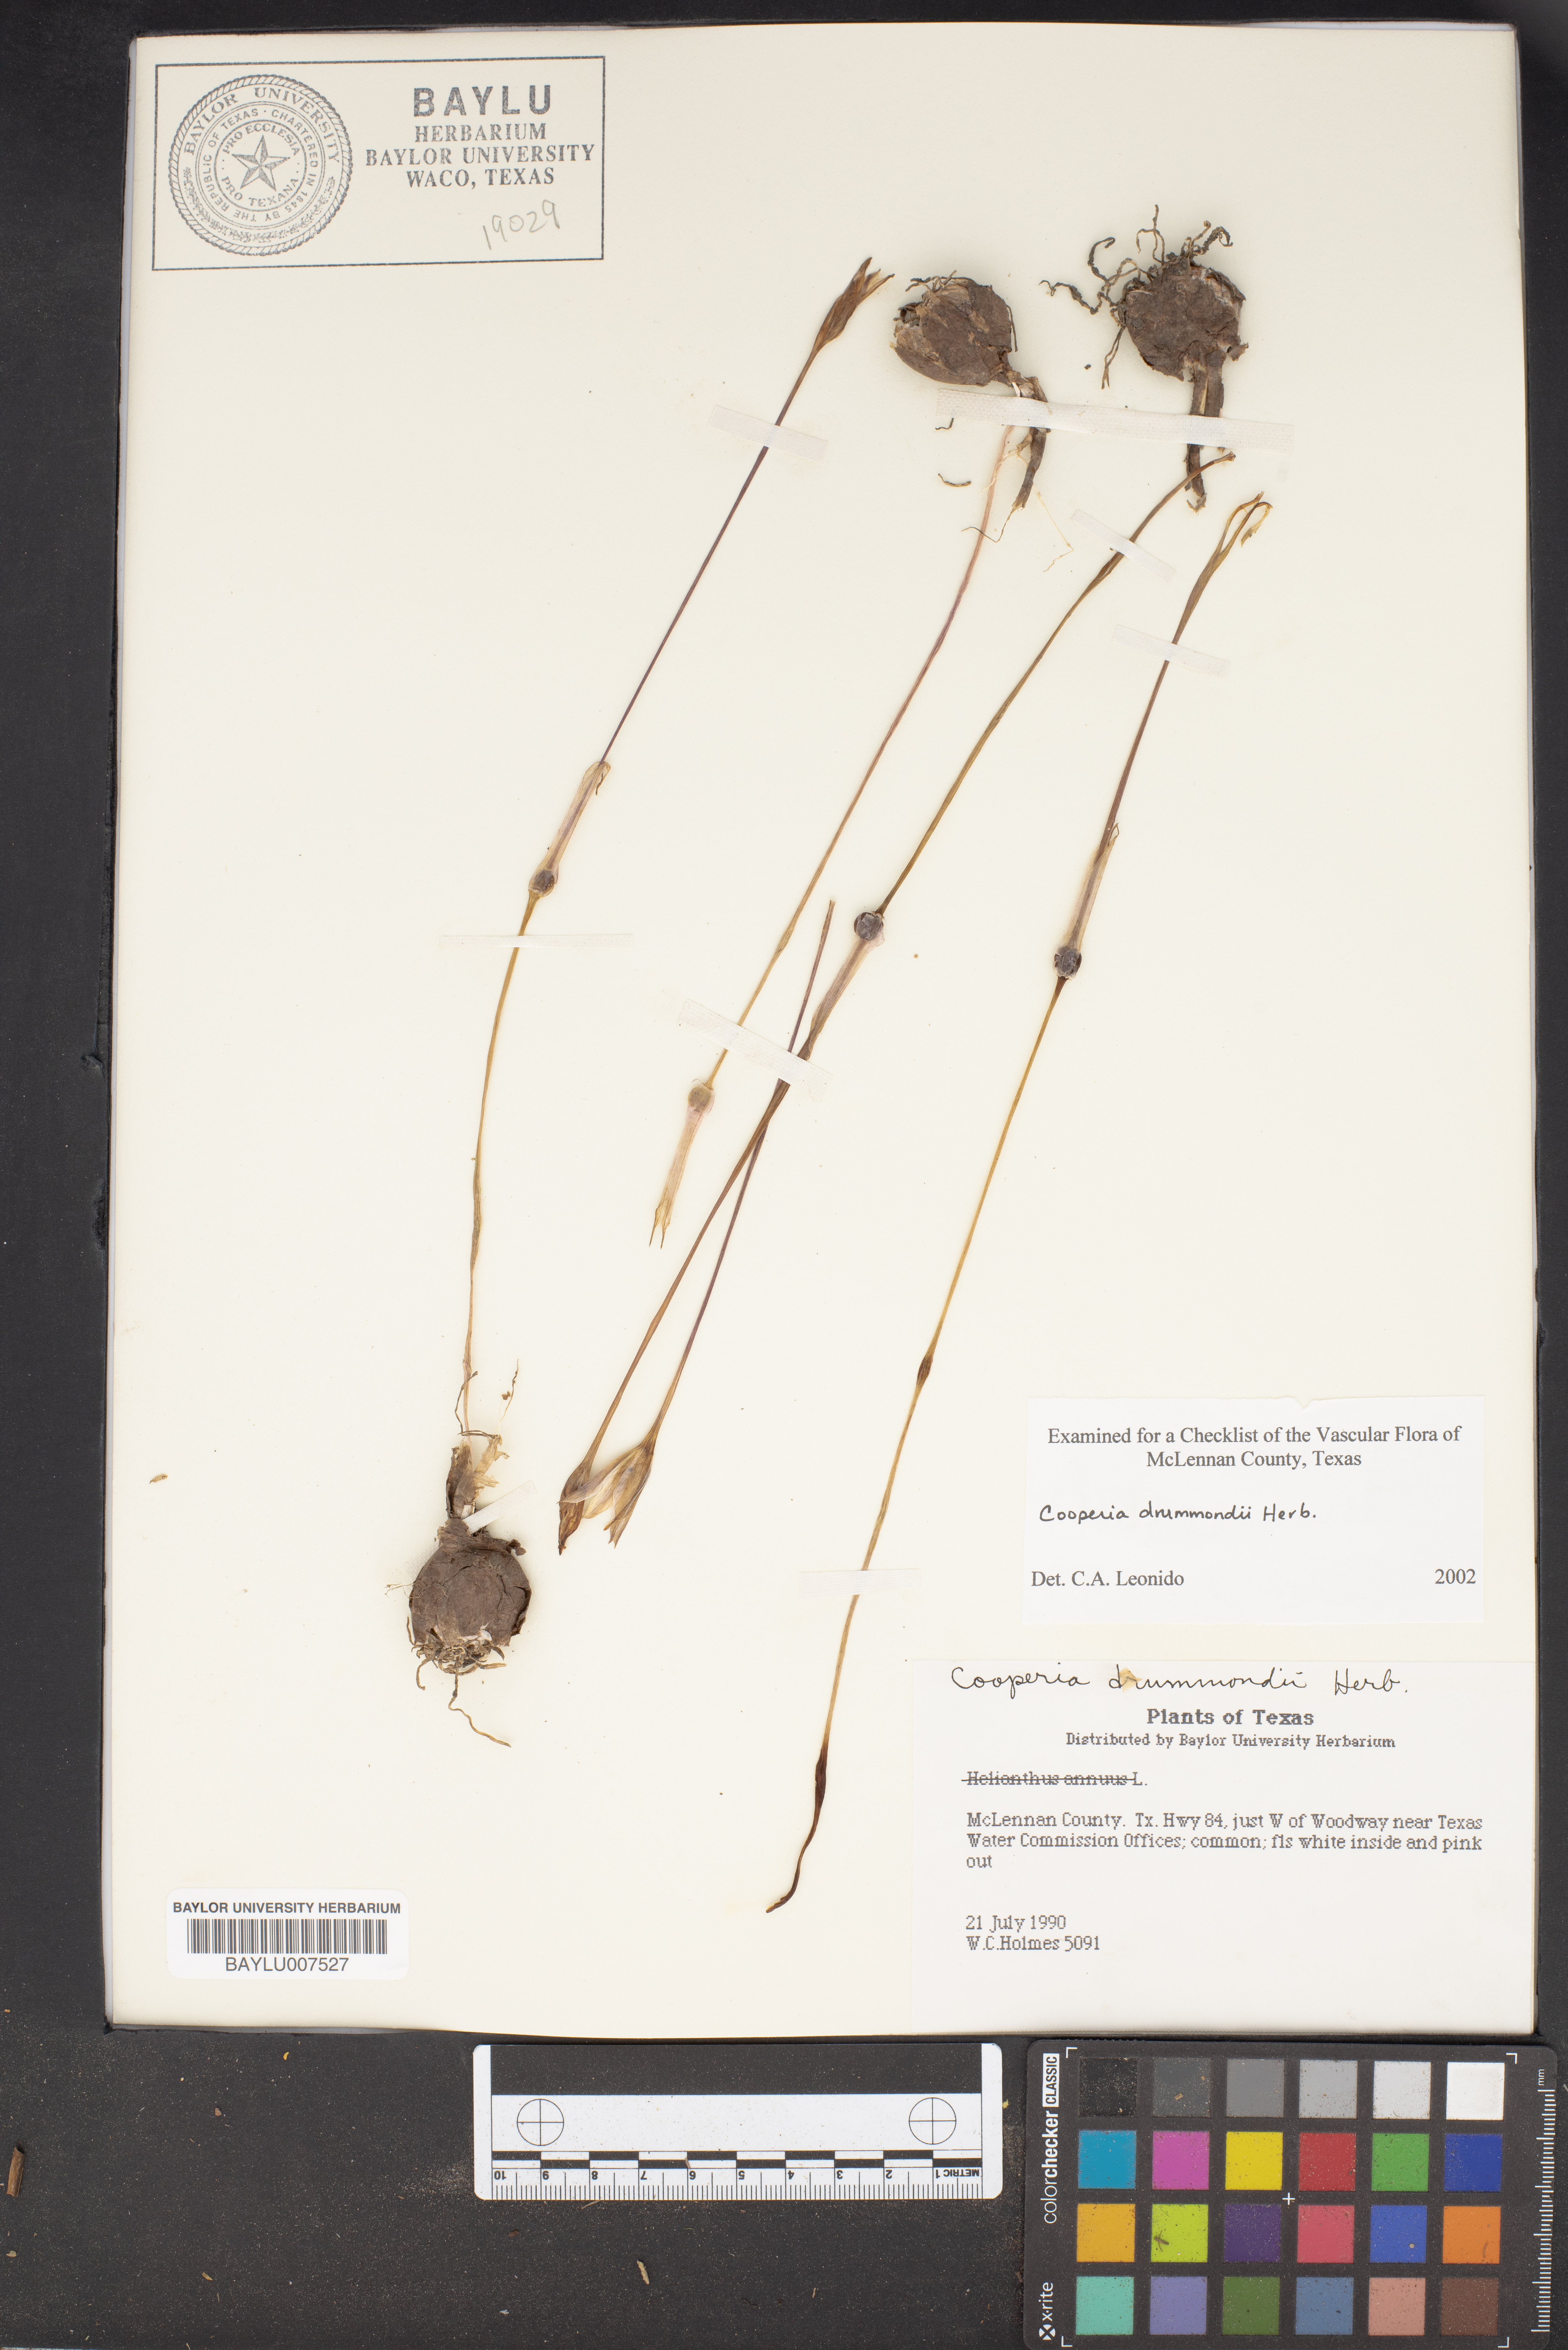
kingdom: Plantae
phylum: Tracheophyta
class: Liliopsida
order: Asparagales
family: Amaryllidaceae
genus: Zephyranthes
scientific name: Zephyranthes chlorosolen
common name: Evening rain-lily
